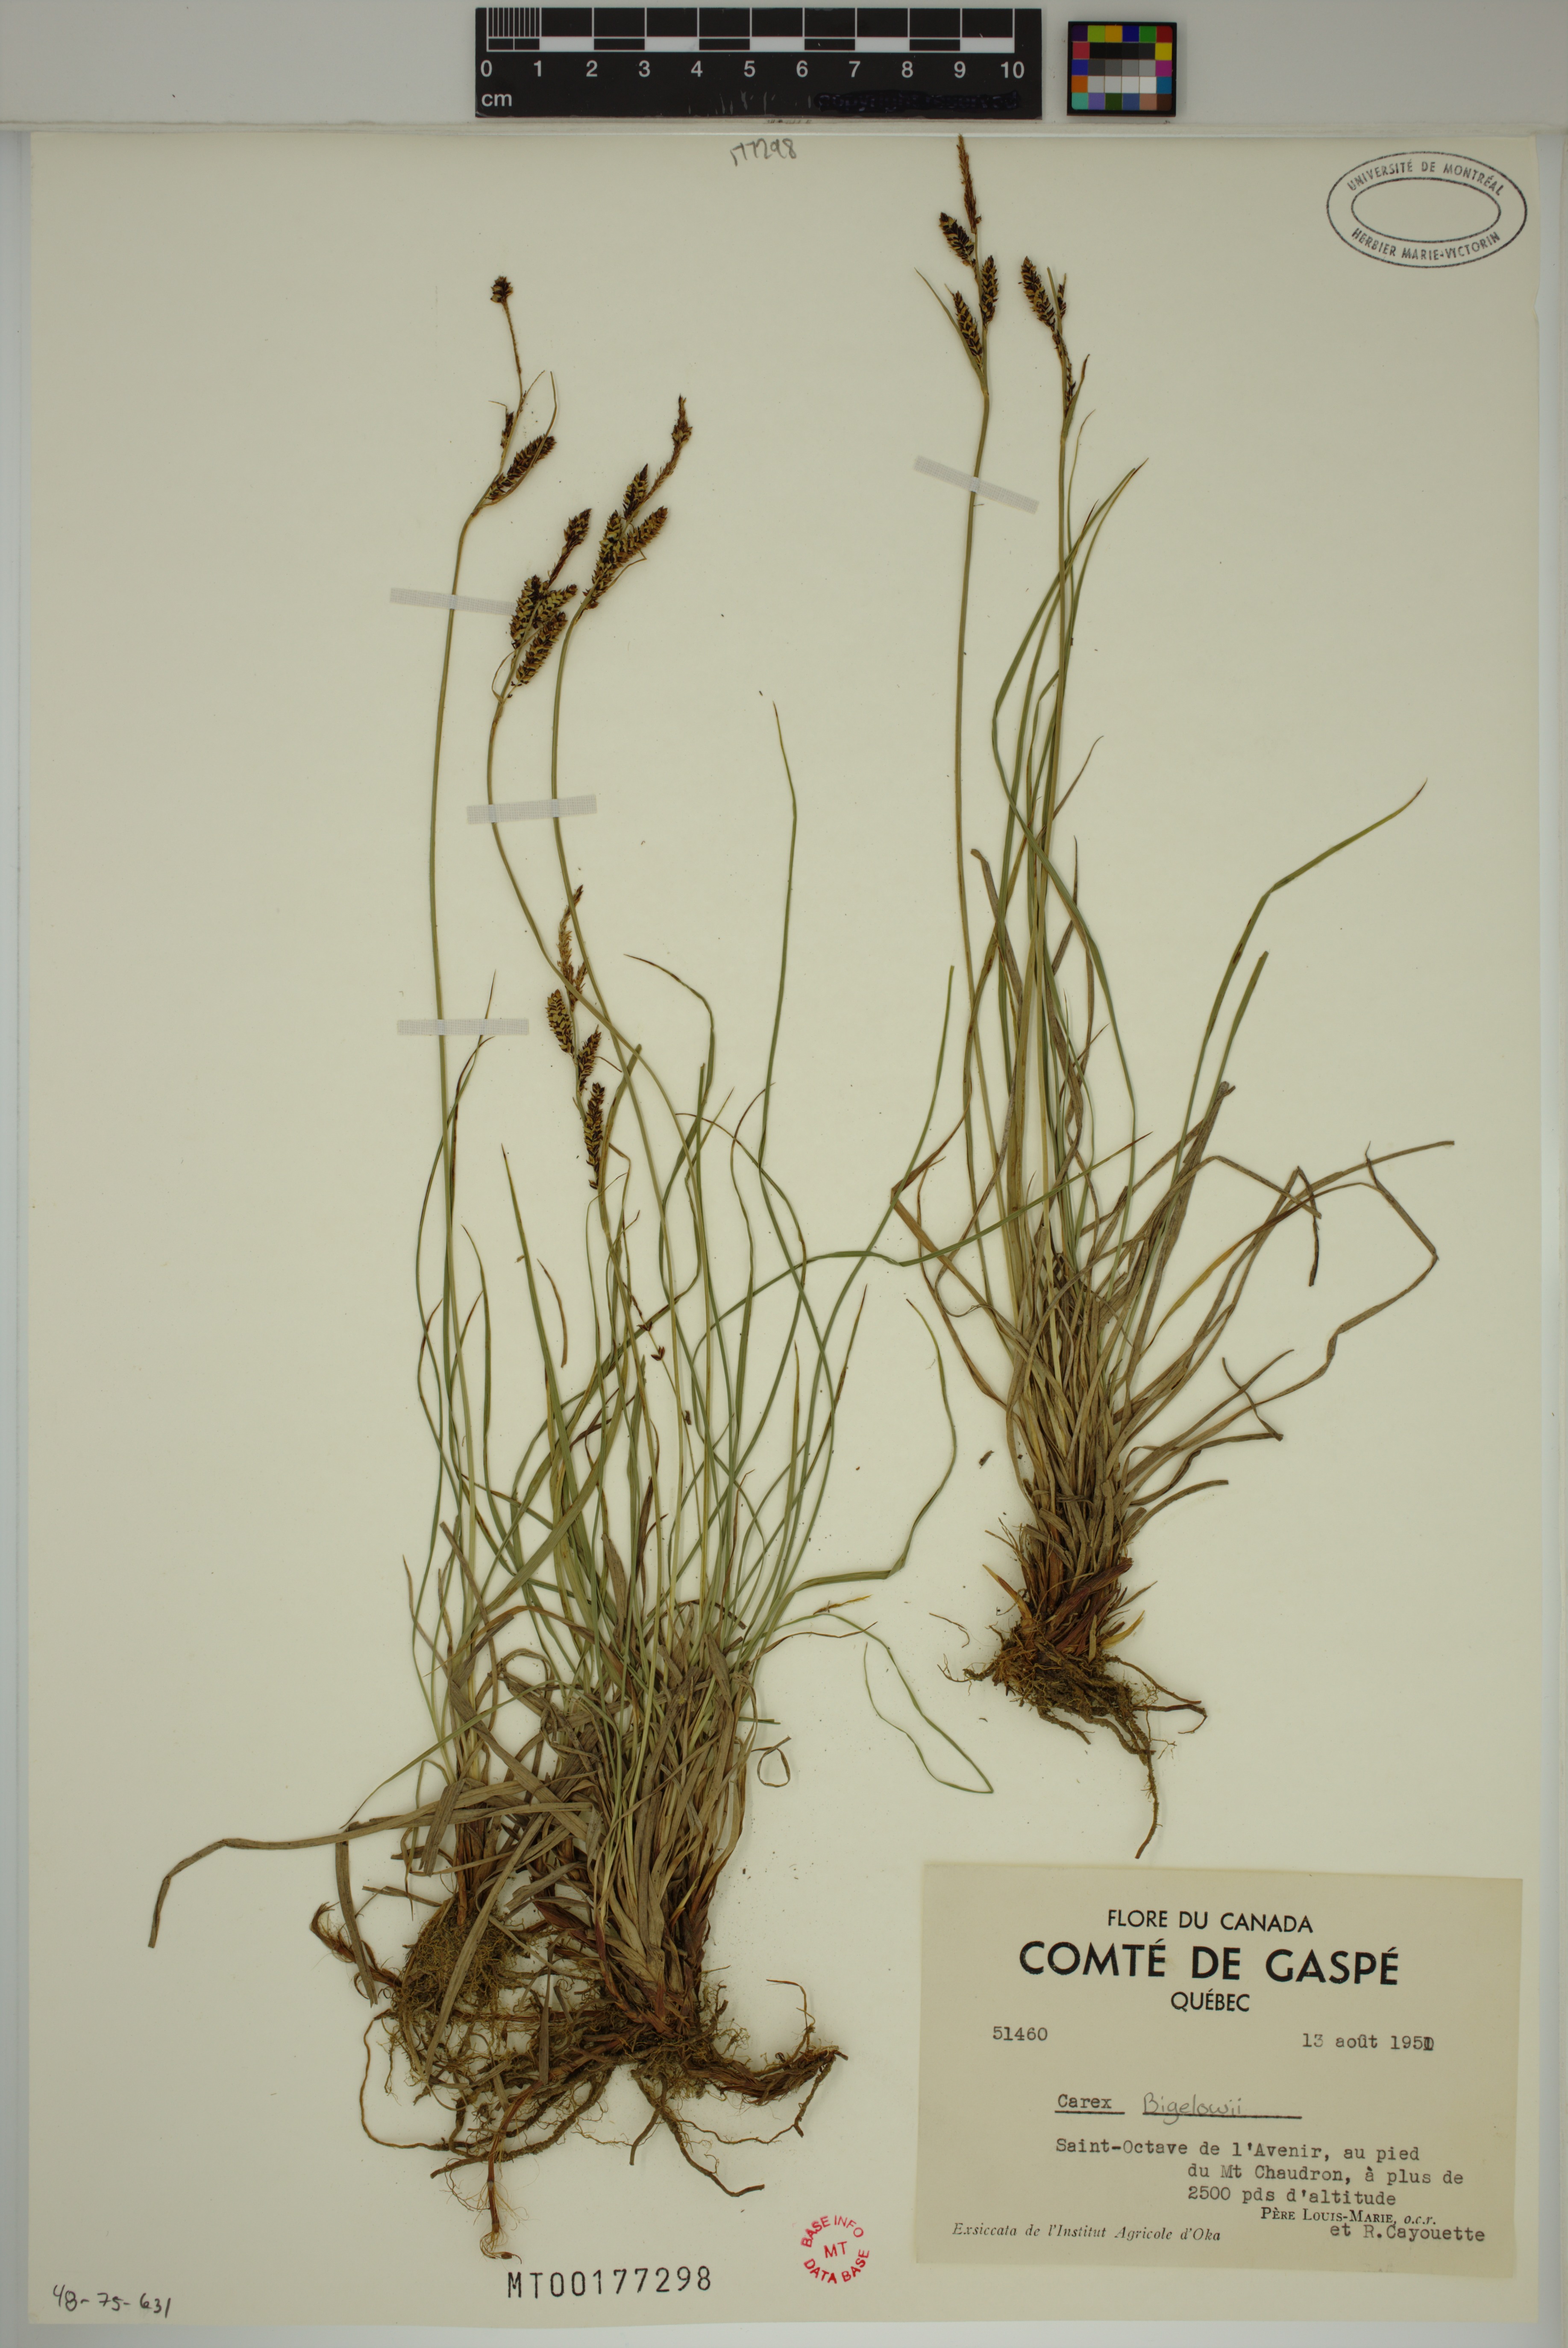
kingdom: Plantae
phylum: Tracheophyta
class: Liliopsida
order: Poales
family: Cyperaceae
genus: Carex
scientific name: Carex bigelowii
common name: Stiff sedge
